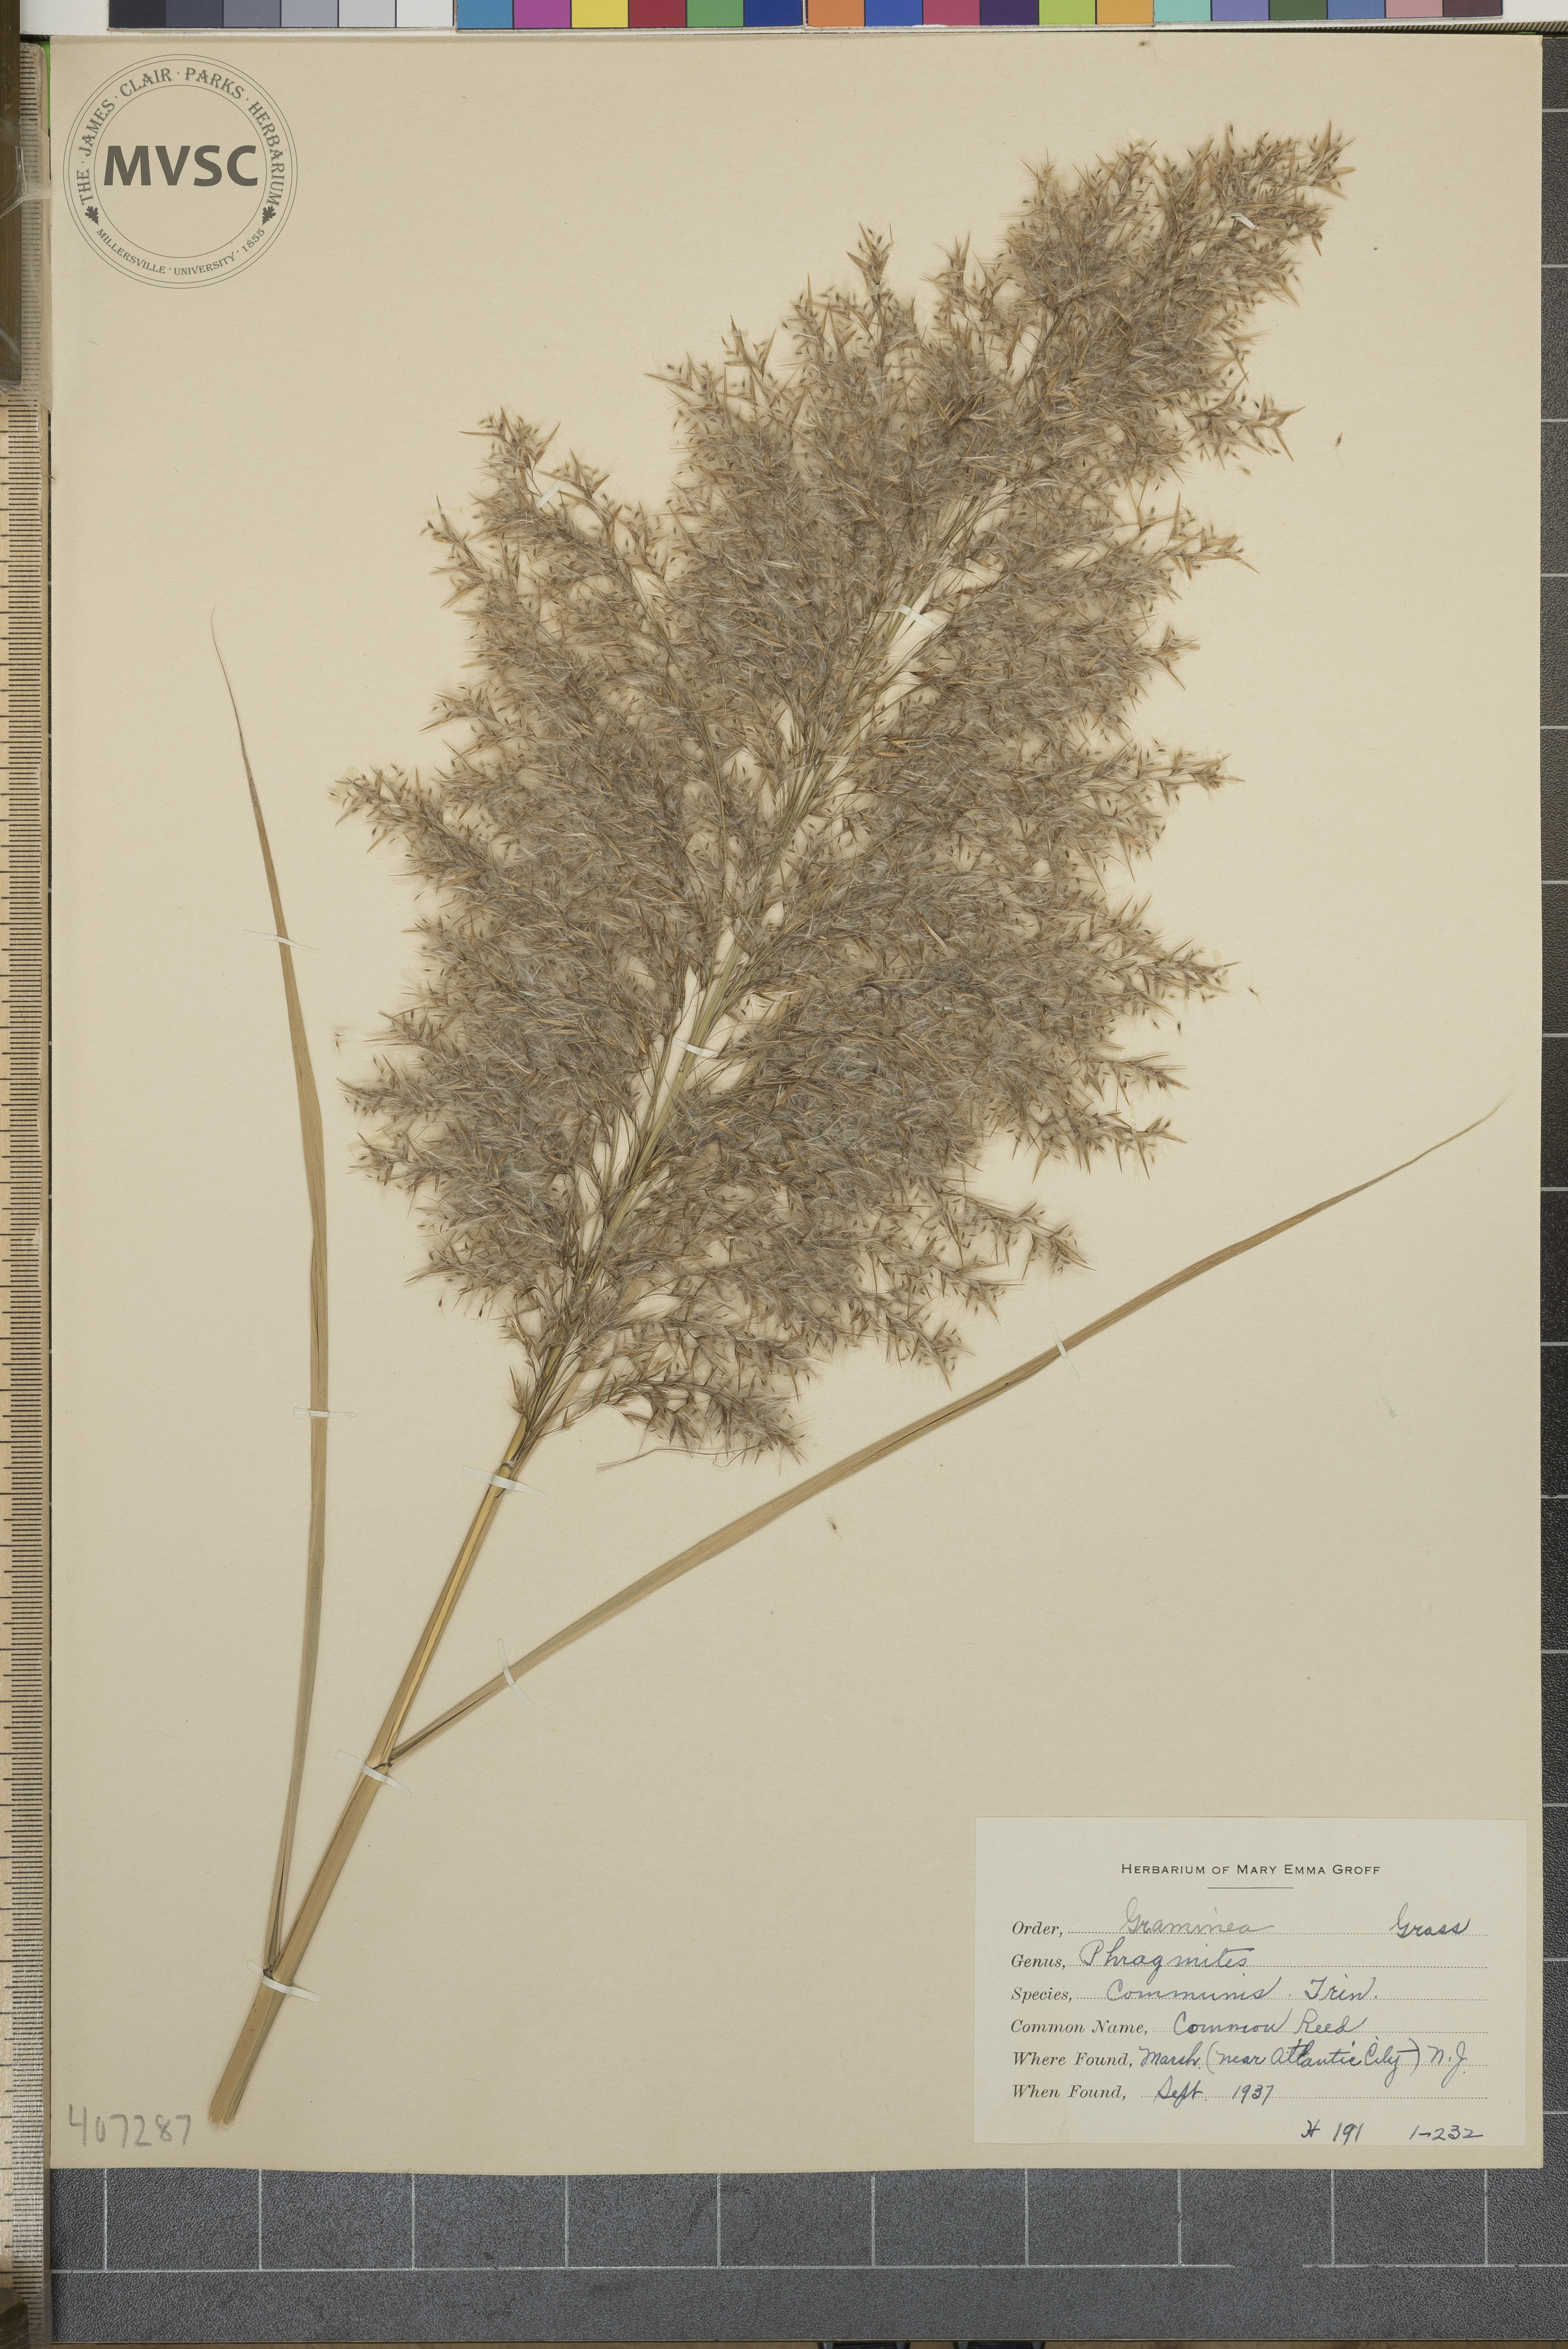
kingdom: Plantae
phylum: Tracheophyta
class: Liliopsida
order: Poales
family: Poaceae
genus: Phragmites
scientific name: Phragmites australis
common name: Common reed
